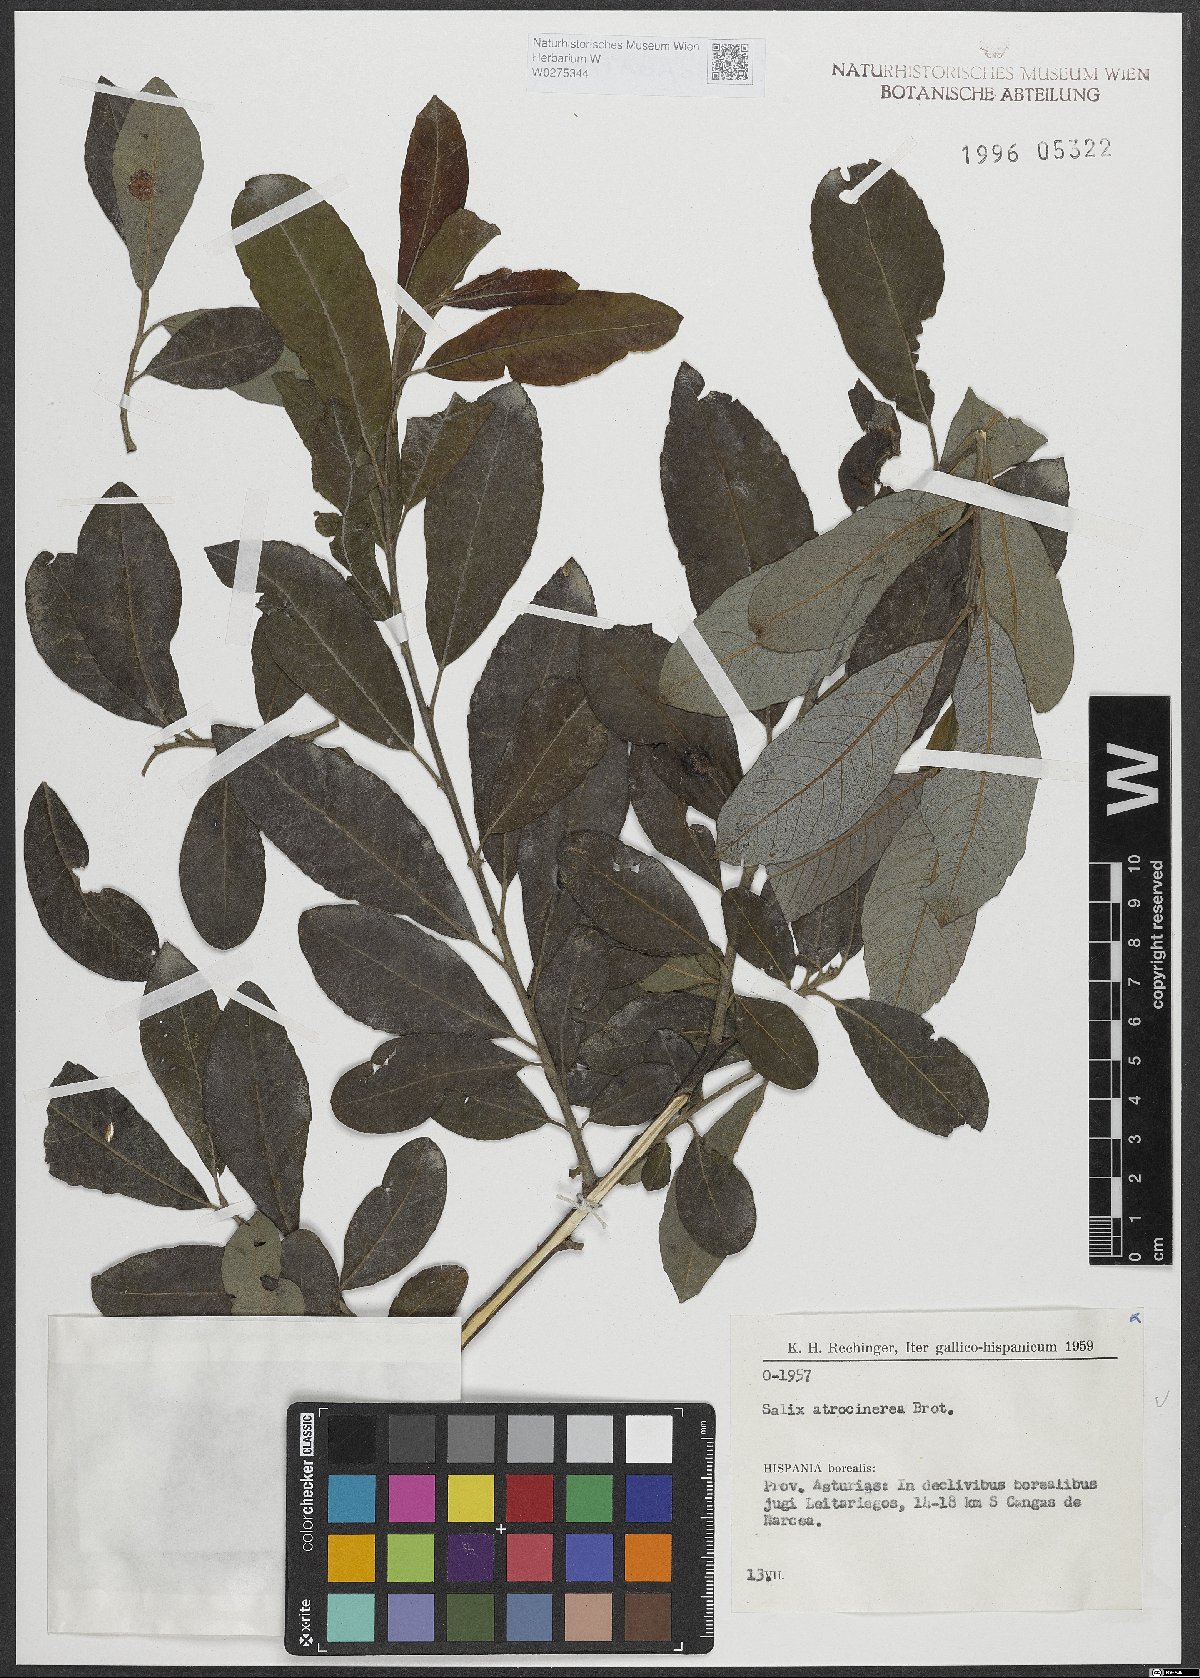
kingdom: Plantae
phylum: Tracheophyta
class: Magnoliopsida
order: Malpighiales
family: Salicaceae
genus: Salix
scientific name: Salix atrocinerea
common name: Rusty willow
